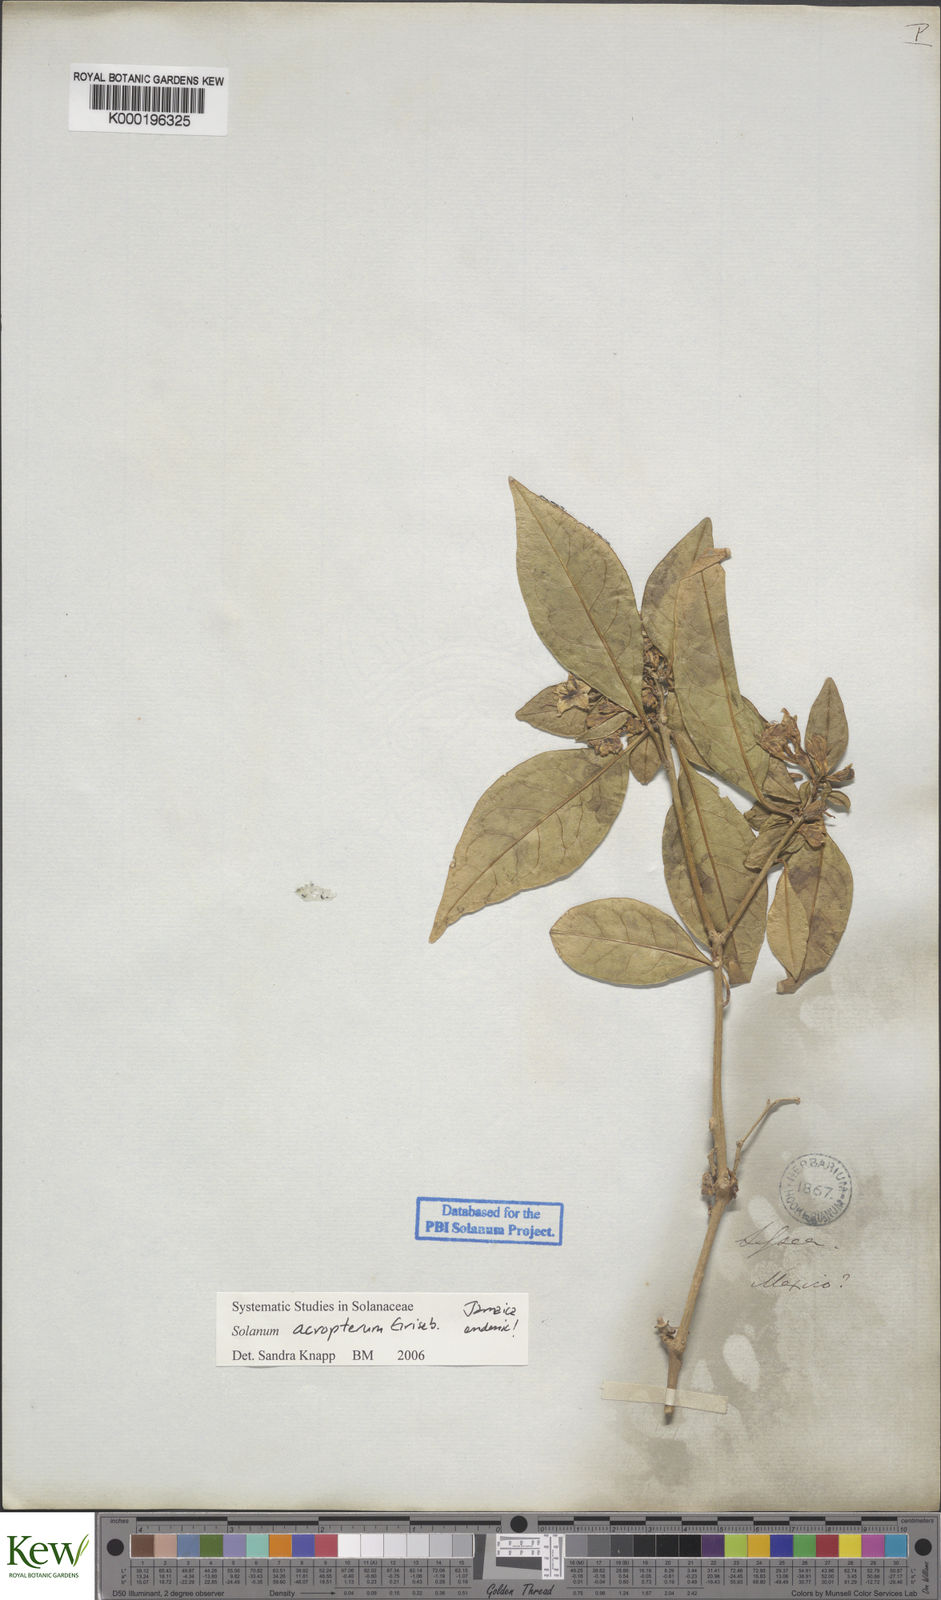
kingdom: Plantae
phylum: Tracheophyta
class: Magnoliopsida
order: Solanales
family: Solanaceae
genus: Solanum
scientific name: Solanum acropterum
